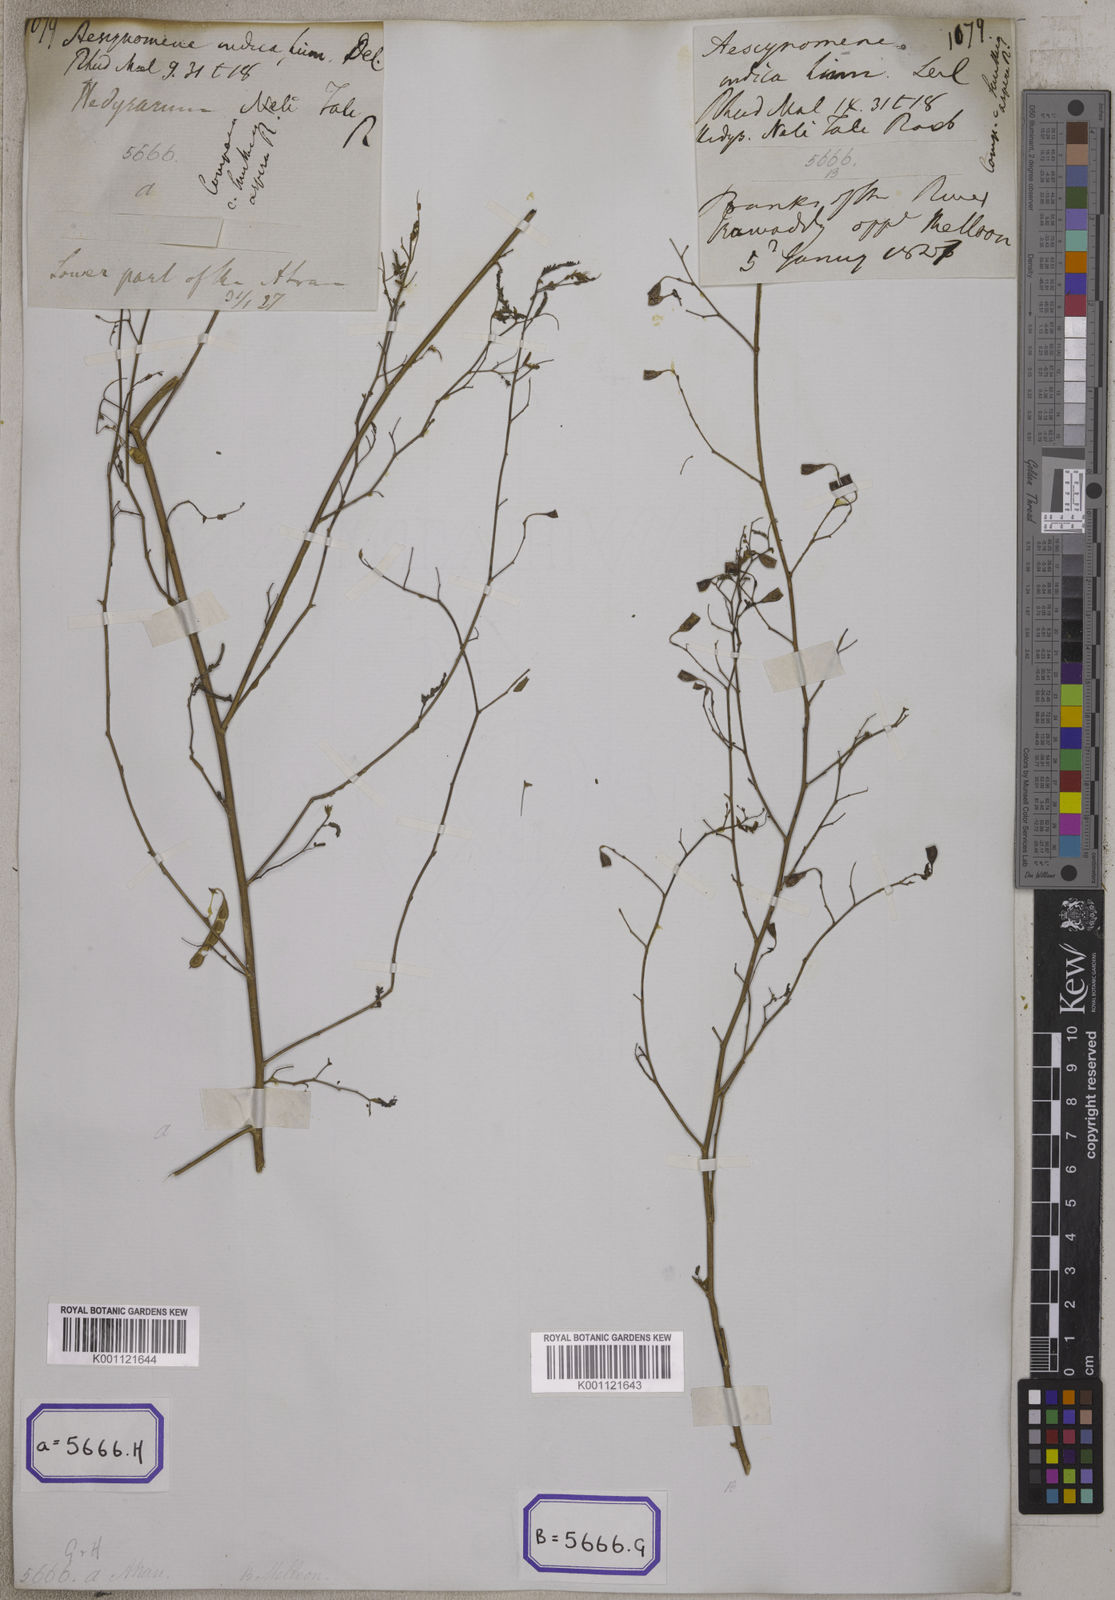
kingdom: Plantae
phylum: Tracheophyta
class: Magnoliopsida
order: Fabales
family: Fabaceae
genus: Aeschynomene
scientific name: Aeschynomene aspera
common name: Pith plant
